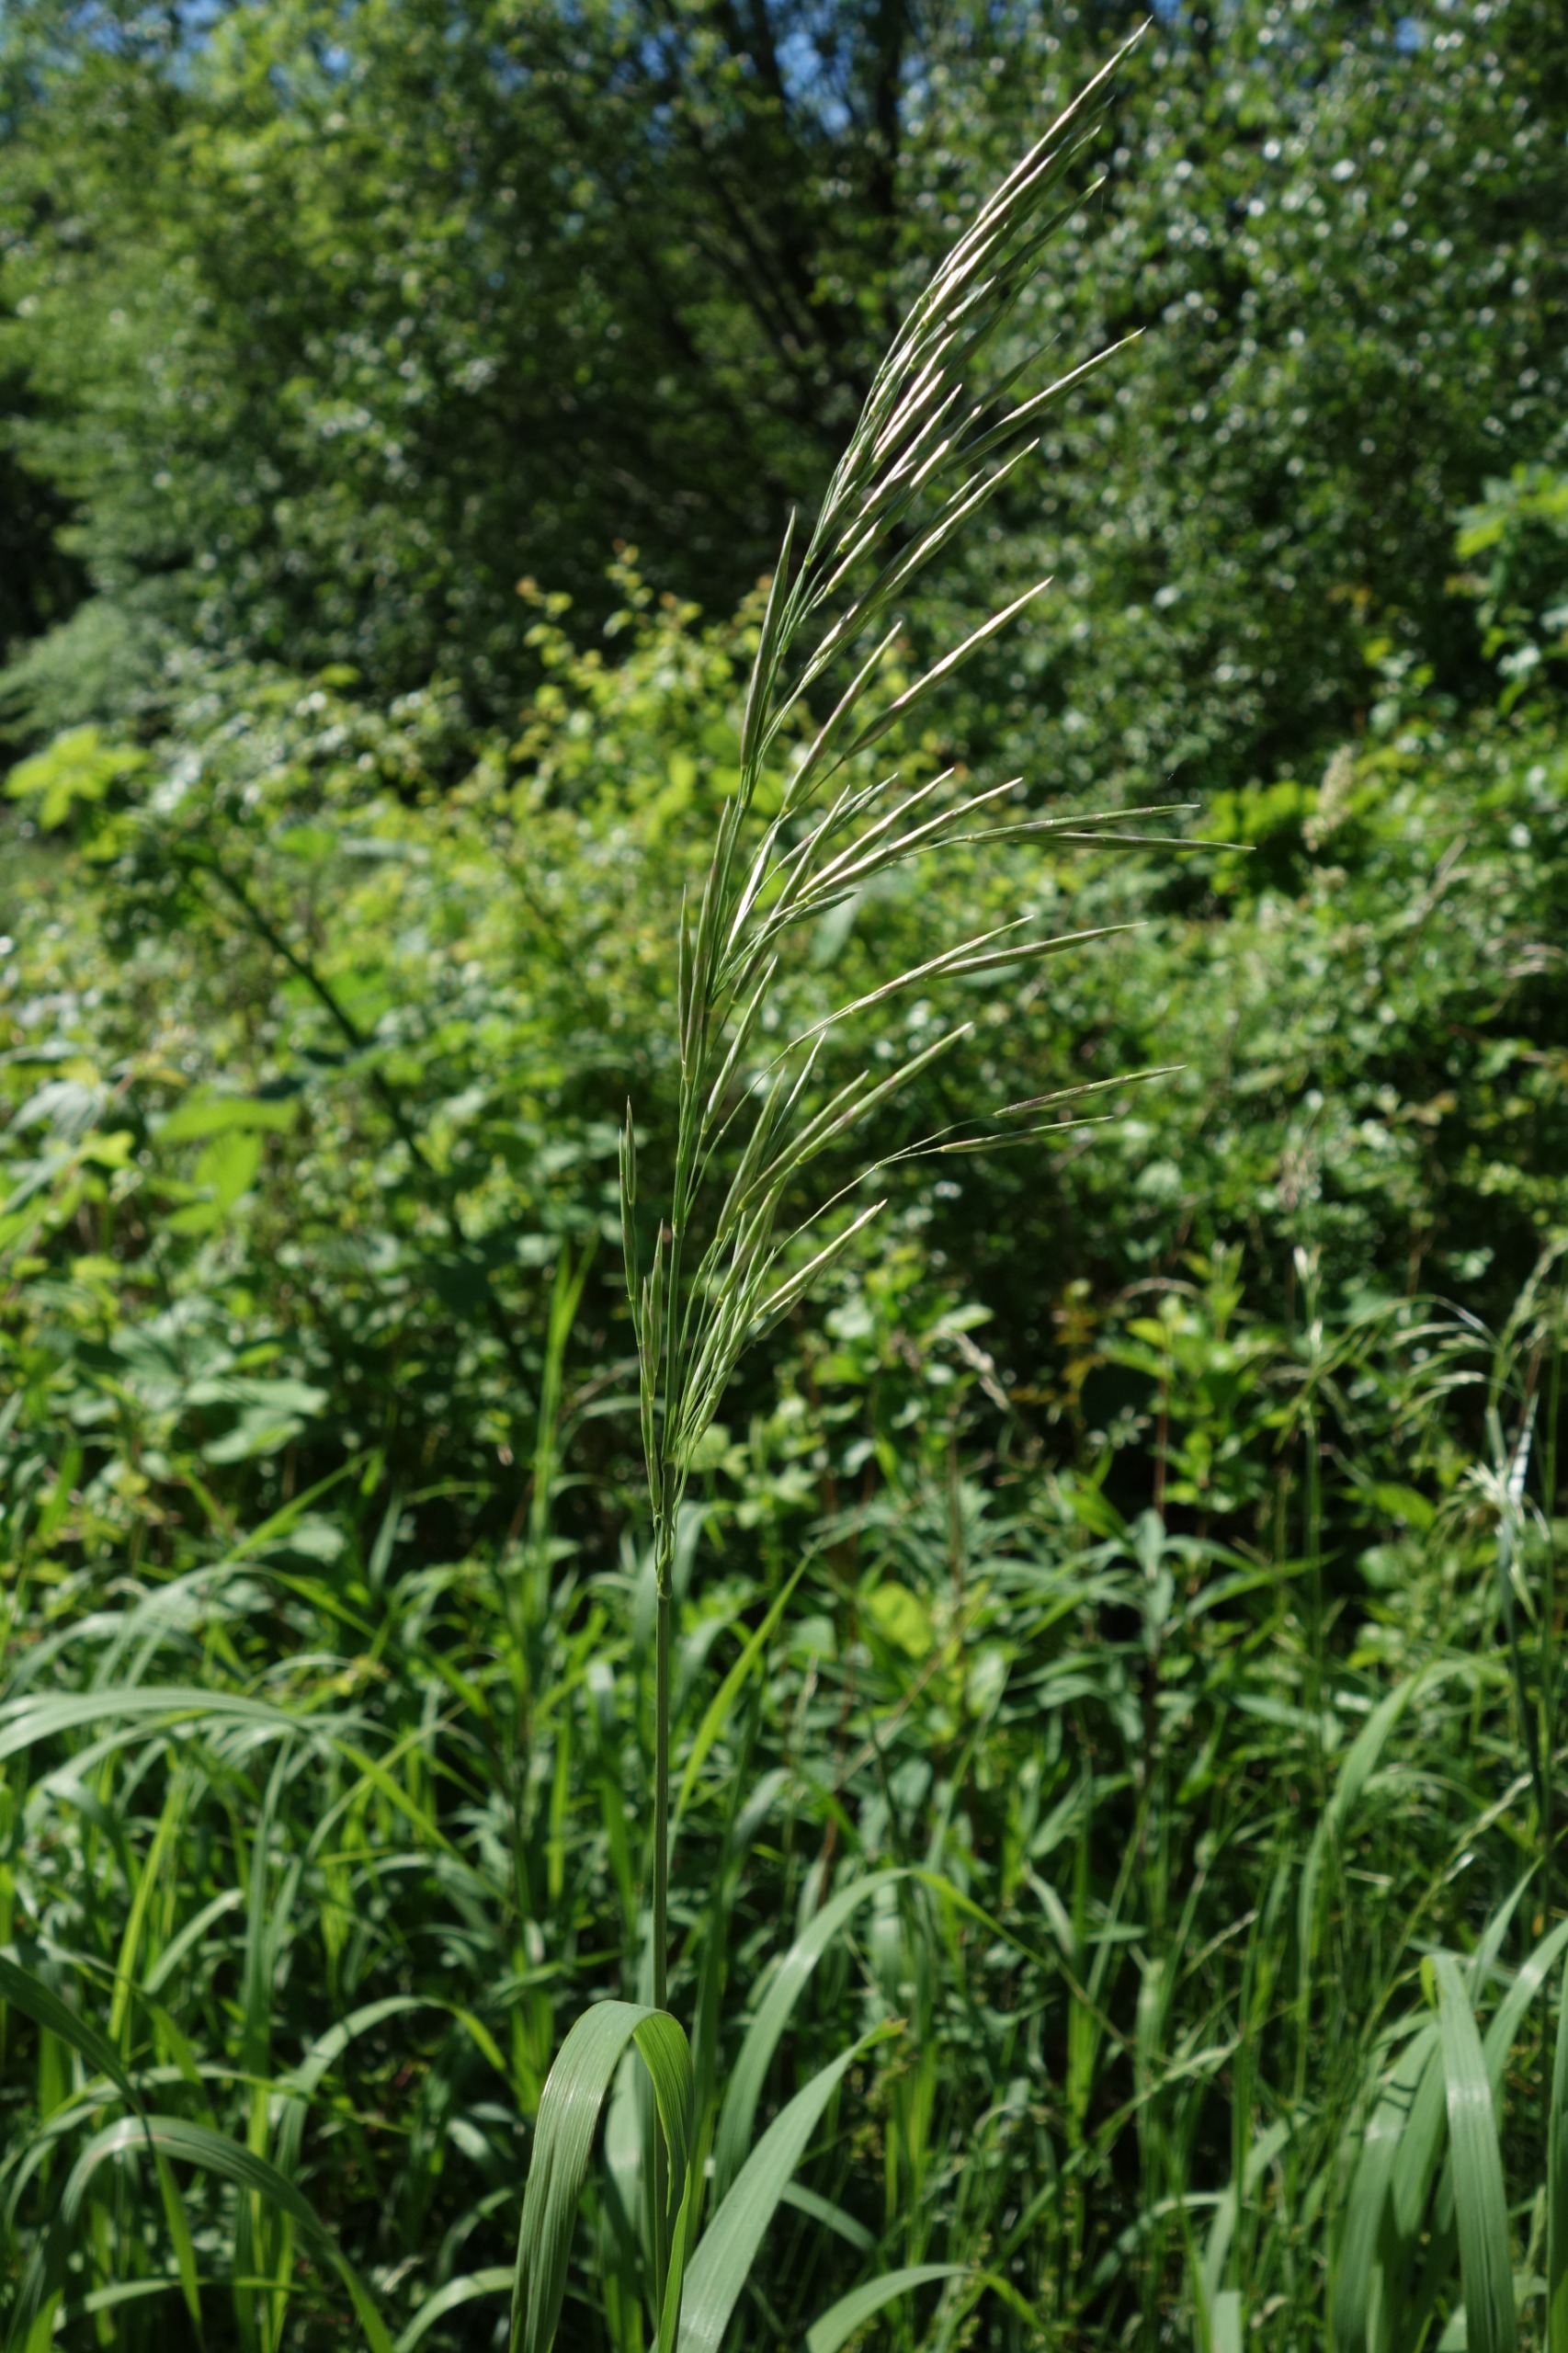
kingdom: Plantae
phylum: Tracheophyta
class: Liliopsida
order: Poales
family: Poaceae
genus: Bromus
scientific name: Bromus inermis
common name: Stakløs hejre
